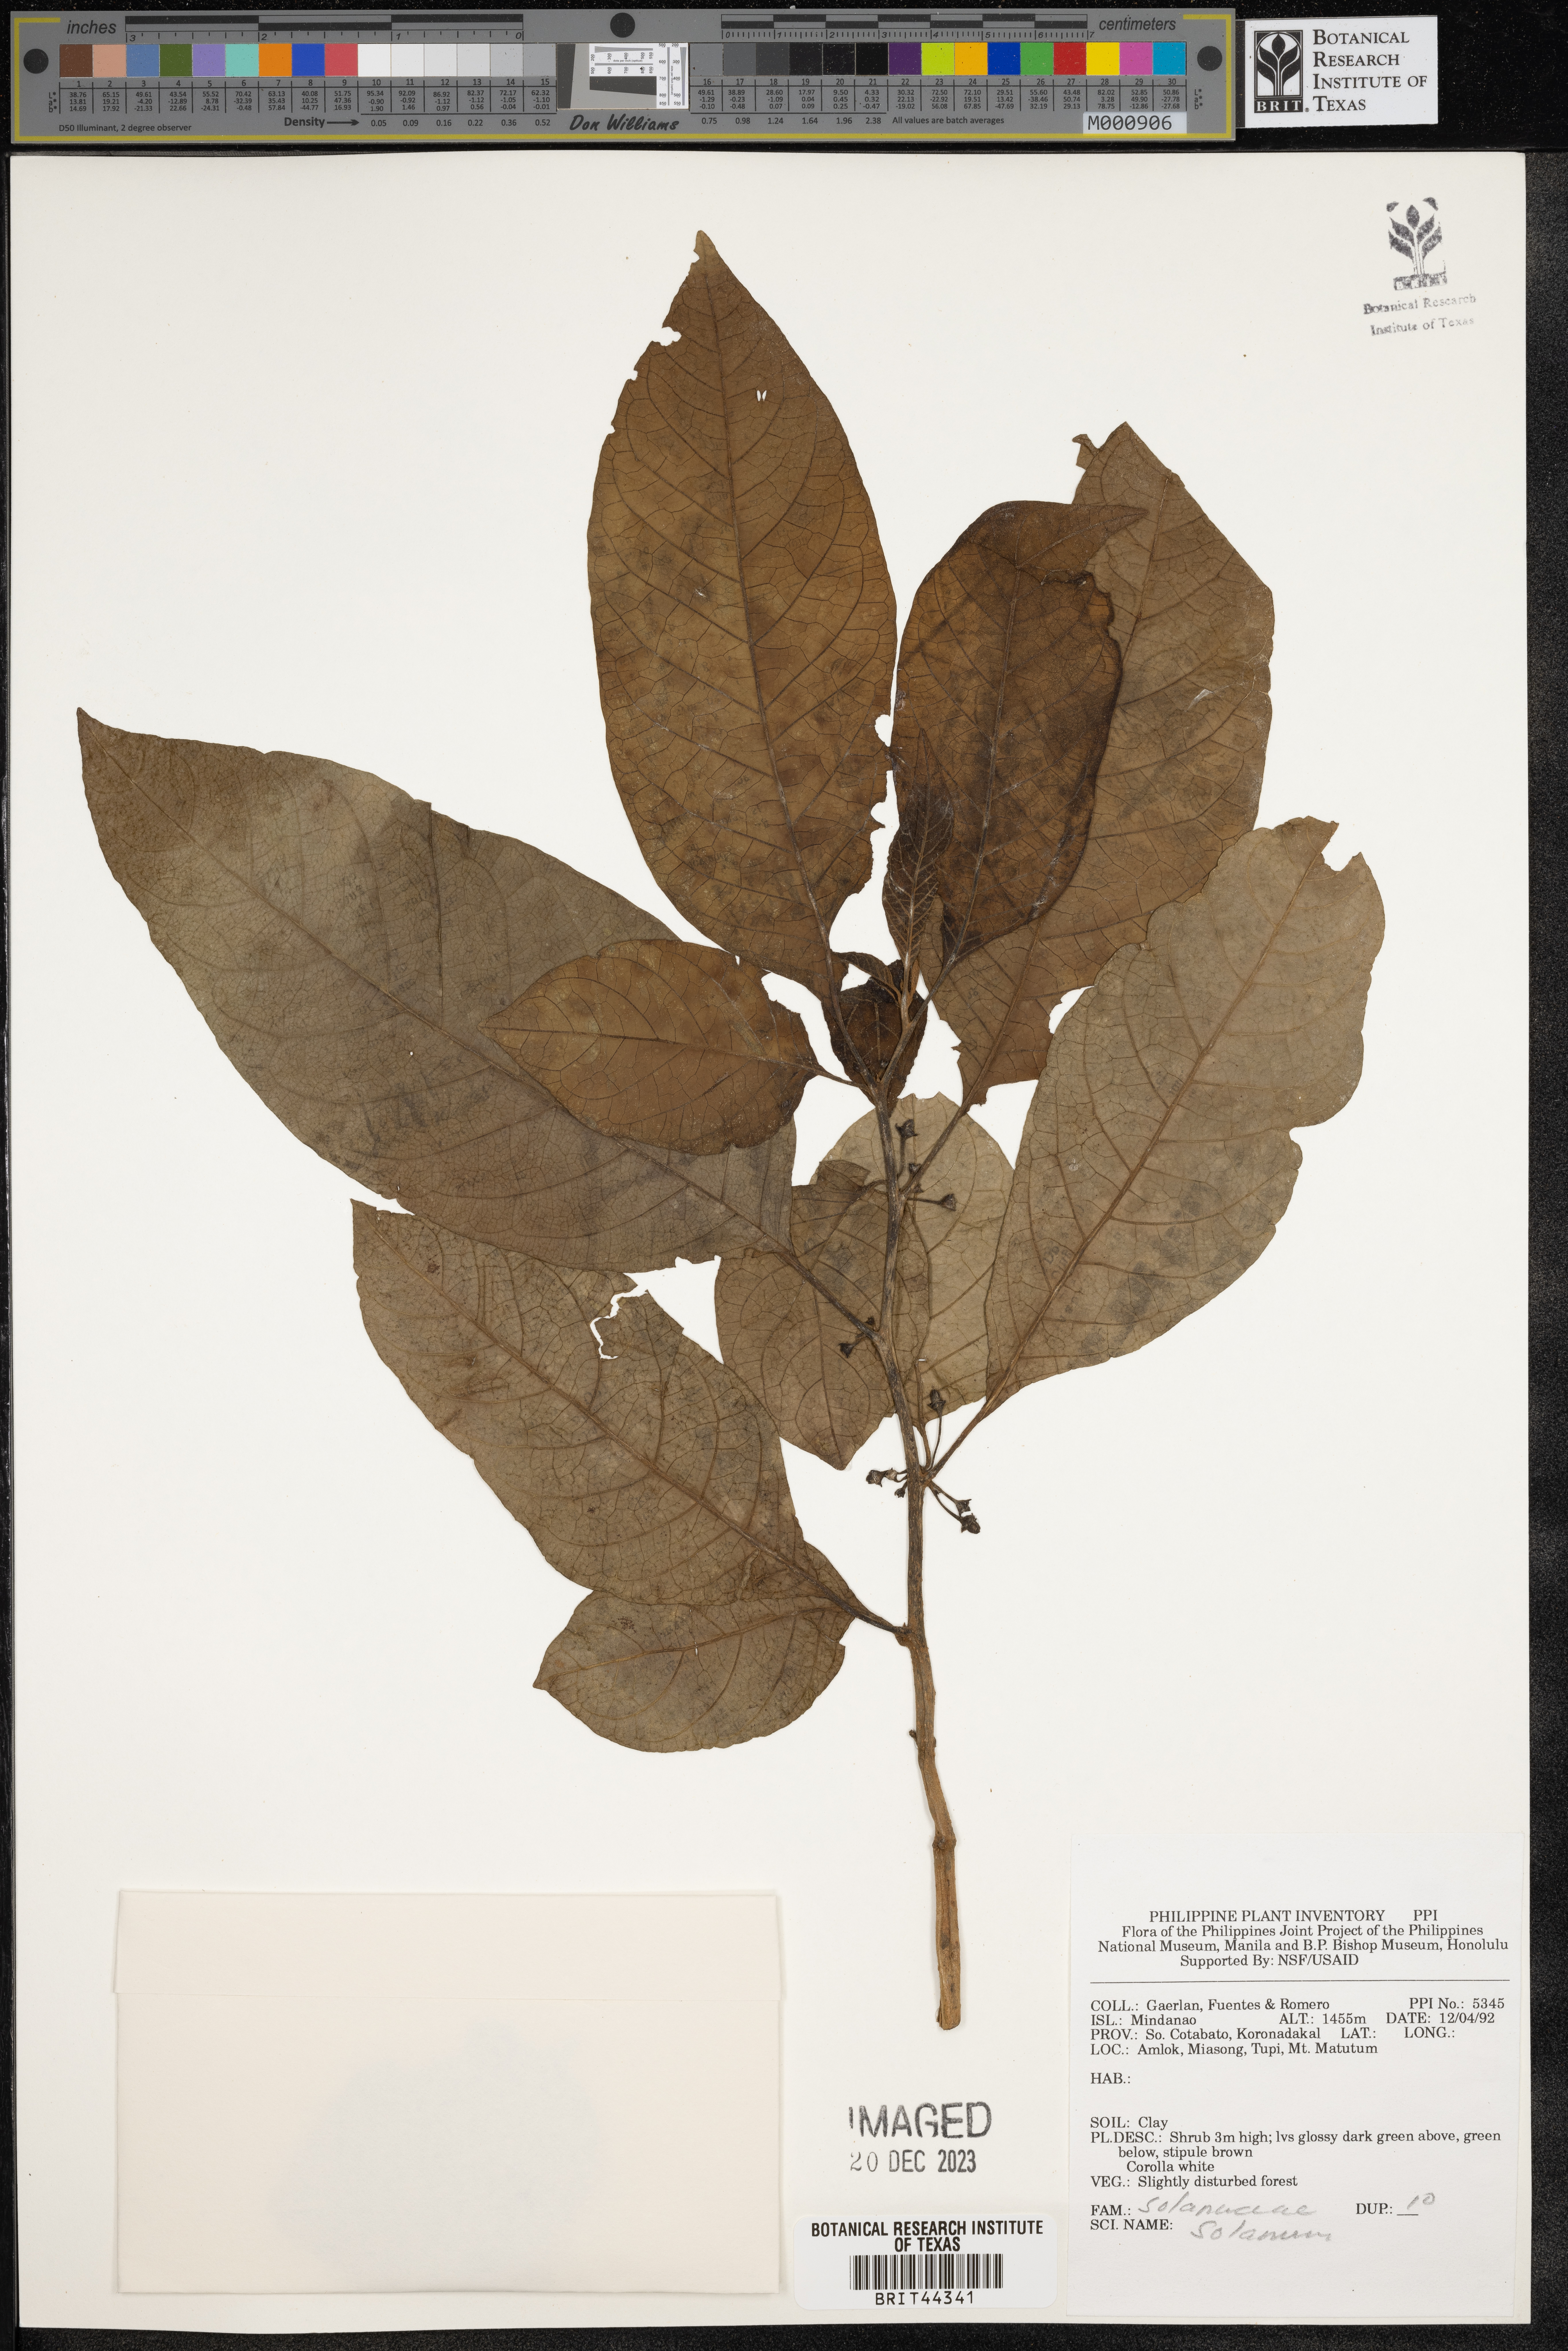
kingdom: Plantae
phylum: Tracheophyta
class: Magnoliopsida
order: Solanales
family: Solanaceae
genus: Solanum
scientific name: Solanum
